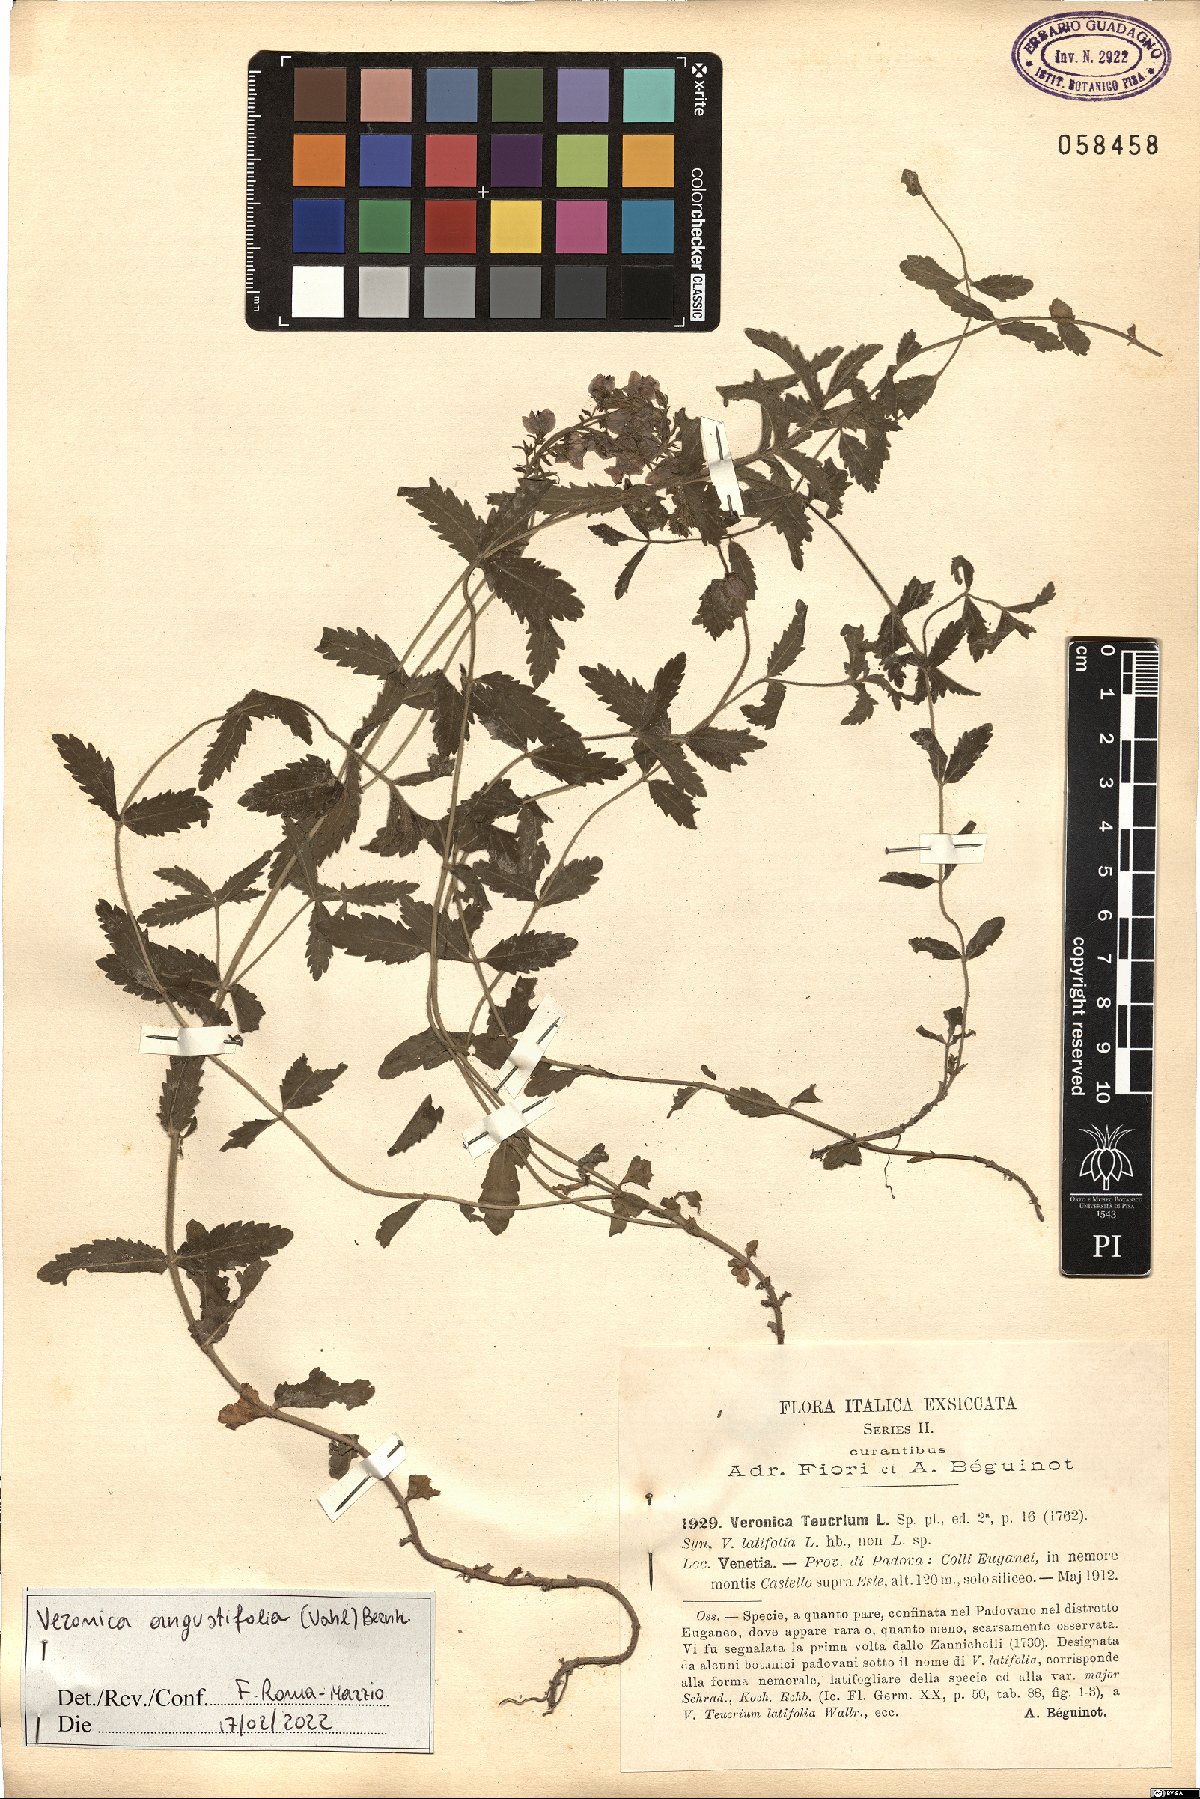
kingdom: Plantae
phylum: Tracheophyta
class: Magnoliopsida
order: Lamiales
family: Plantaginaceae
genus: Veronica
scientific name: Veronica angustifolia
